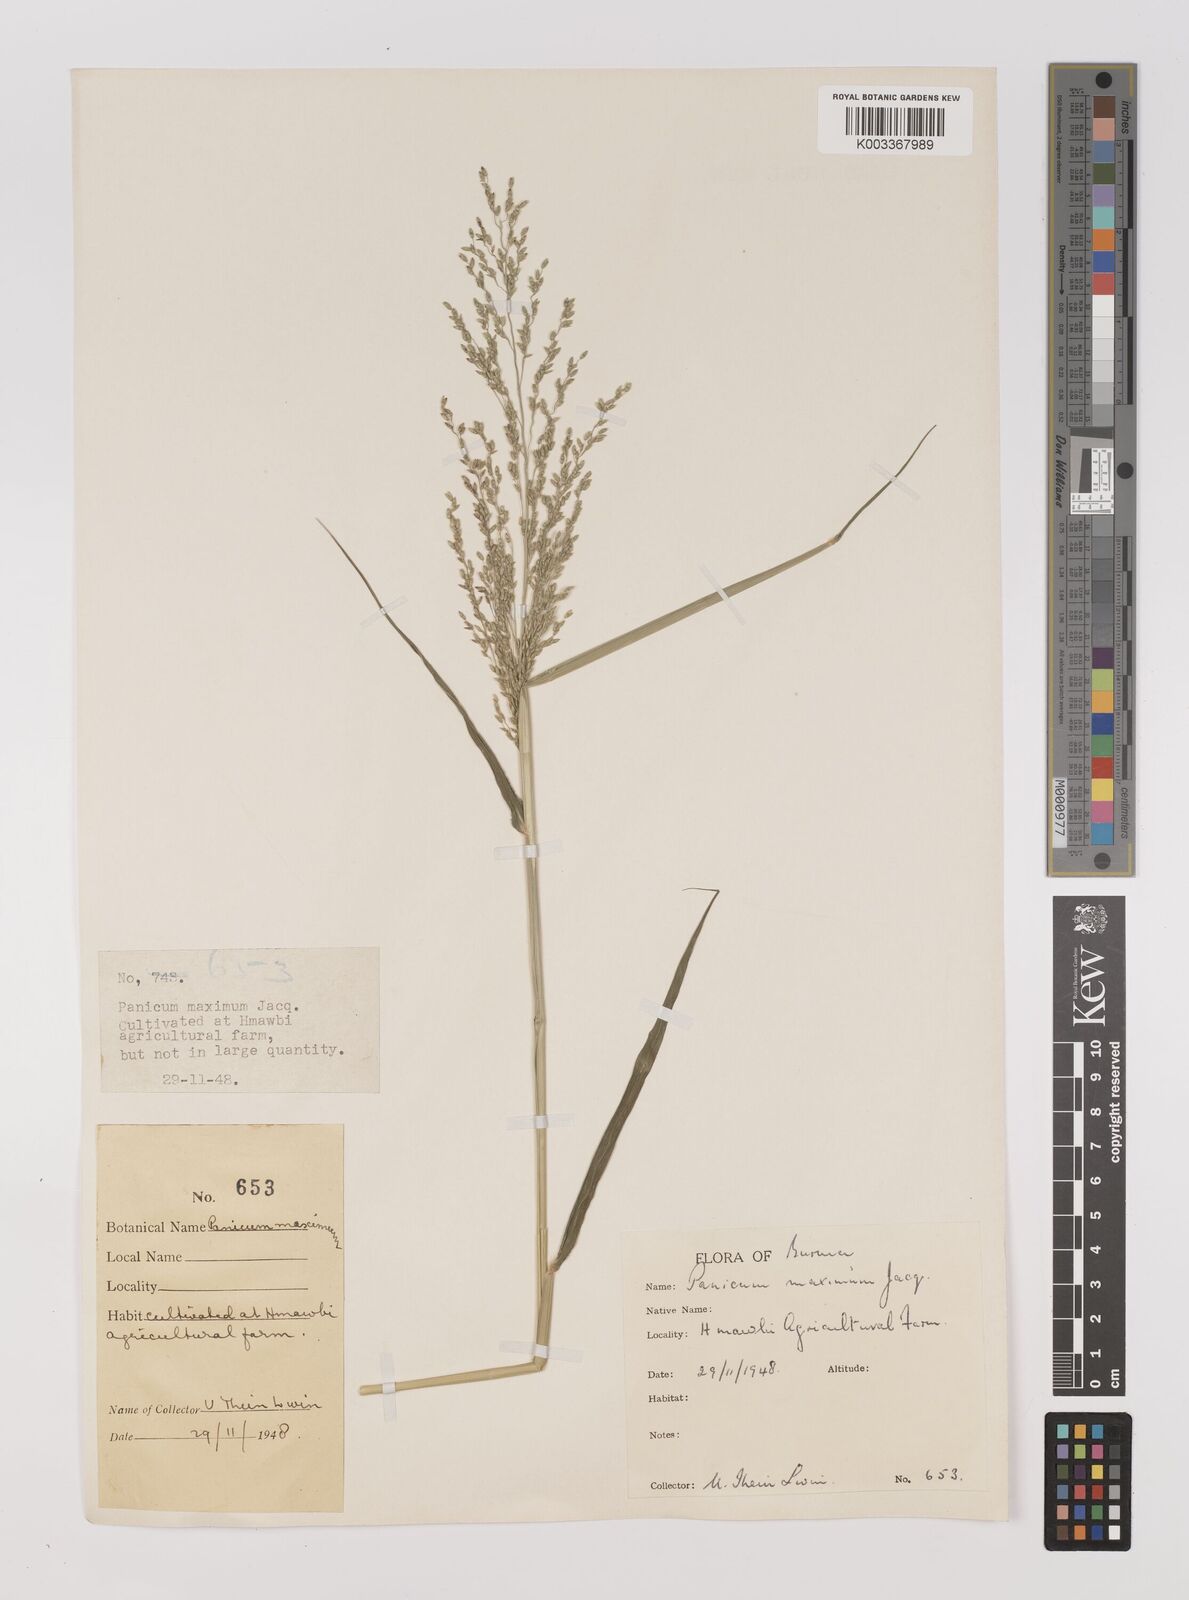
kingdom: Plantae
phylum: Tracheophyta
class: Liliopsida
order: Poales
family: Poaceae
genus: Megathyrsus
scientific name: Megathyrsus maximus
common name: Guineagrass
